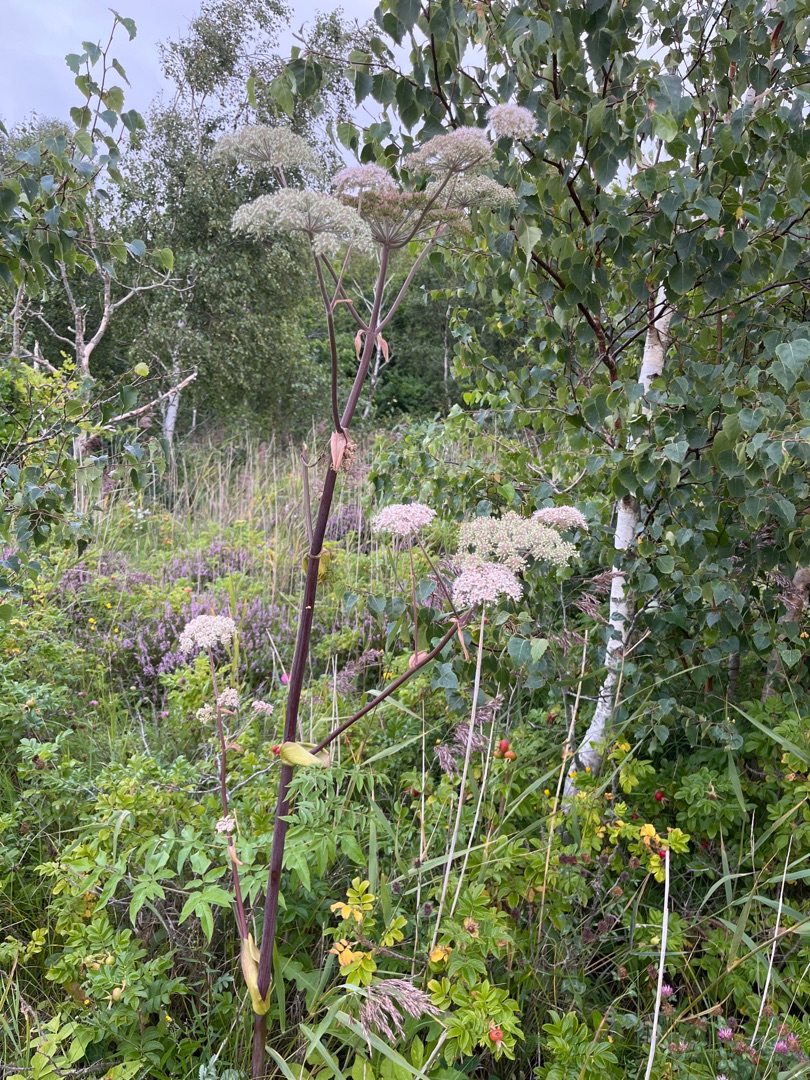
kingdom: Plantae
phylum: Tracheophyta
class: Magnoliopsida
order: Apiales
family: Apiaceae
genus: Angelica
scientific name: Angelica sylvestris
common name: Angelik
